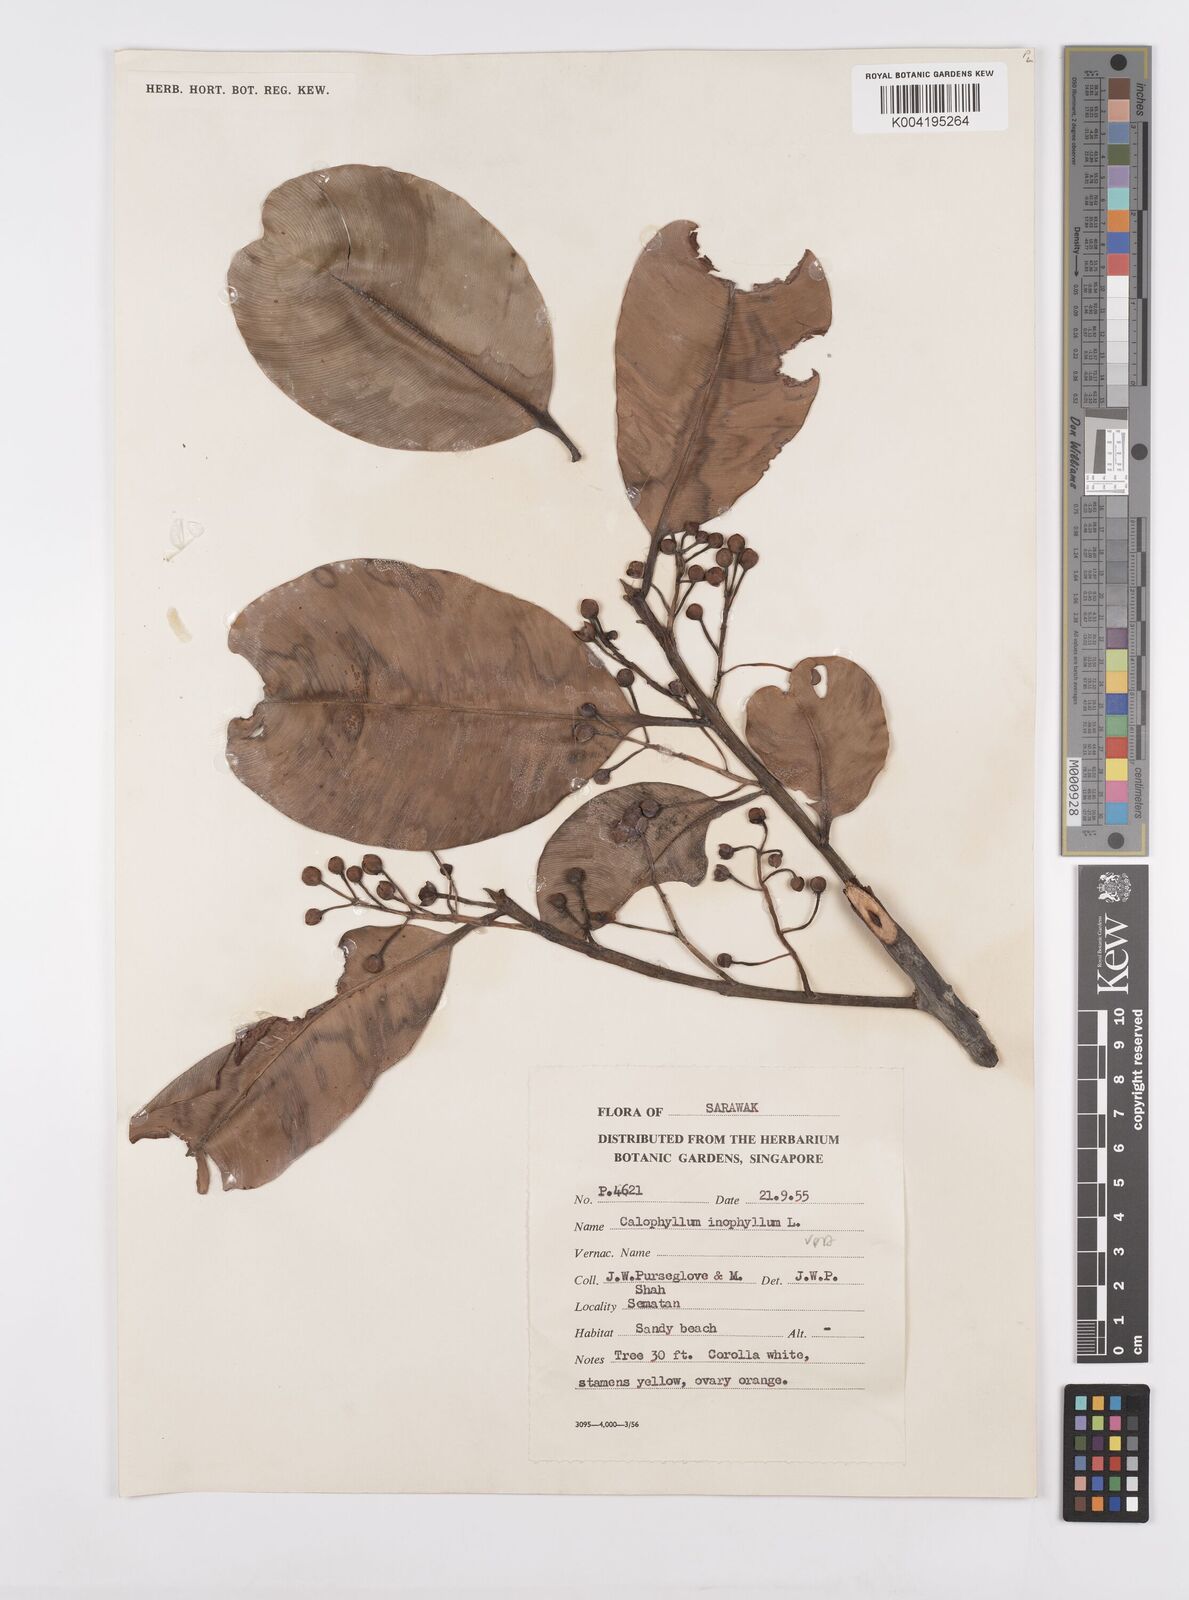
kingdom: Plantae
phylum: Tracheophyta
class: Magnoliopsida
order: Malpighiales
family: Calophyllaceae
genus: Calophyllum
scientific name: Calophyllum inophyllum
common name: Alexandrian laurel
